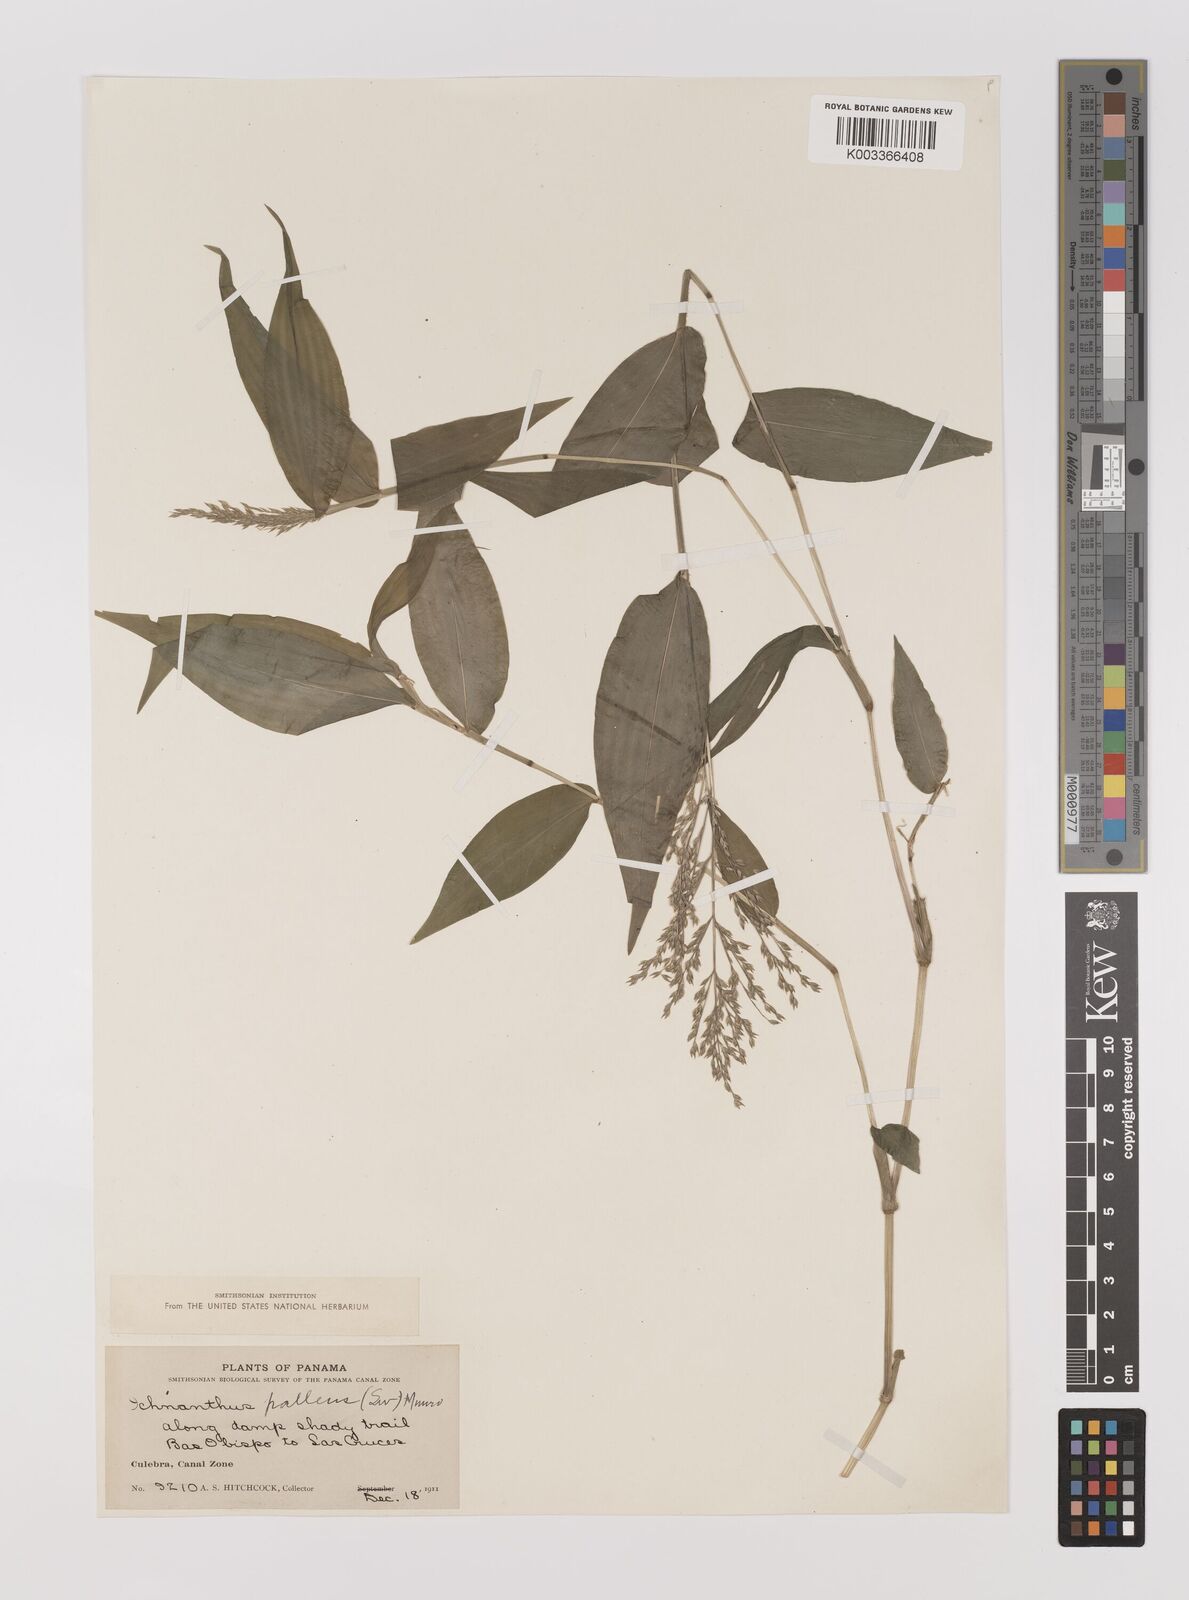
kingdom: Plantae
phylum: Tracheophyta
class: Liliopsida
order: Poales
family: Poaceae
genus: Ichnanthus
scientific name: Ichnanthus pallens
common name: Water grass
